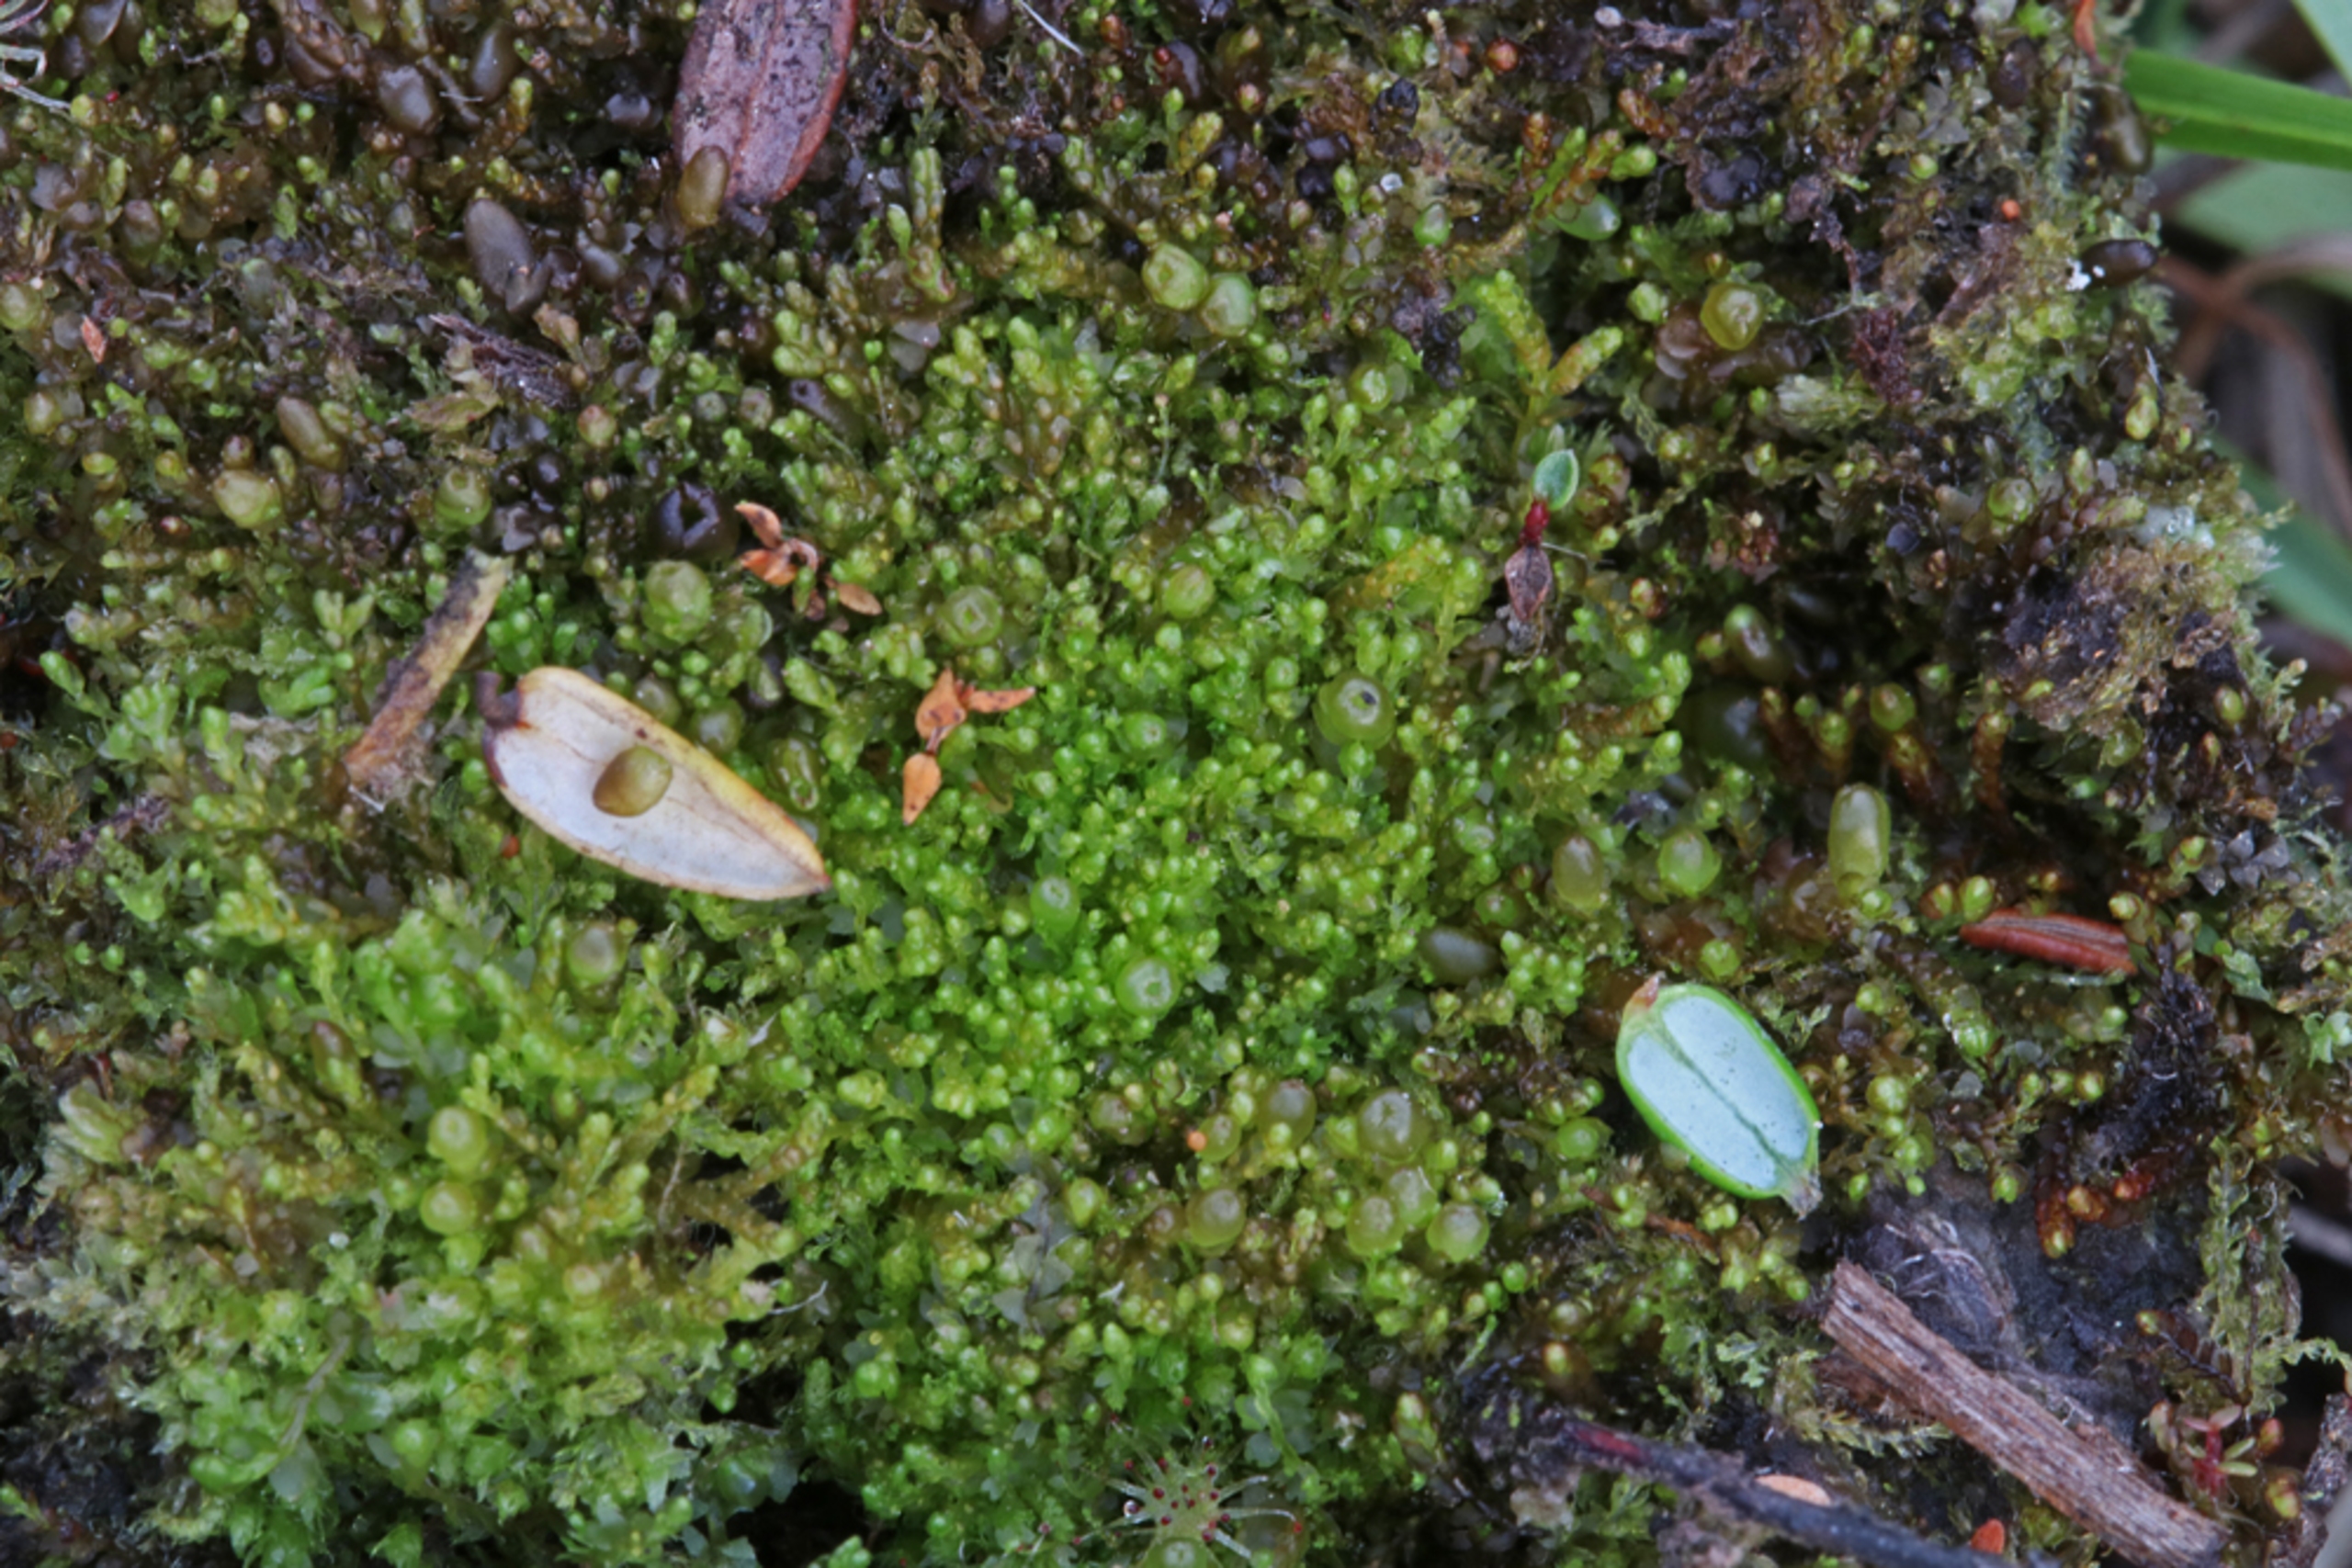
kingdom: Plantae
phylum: Marchantiophyta
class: Jungermanniopsida
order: Jungermanniales
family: Anastrophyllaceae
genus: Gymnocolea
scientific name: Gymnocolea inflata
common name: Opblæst blæremos
